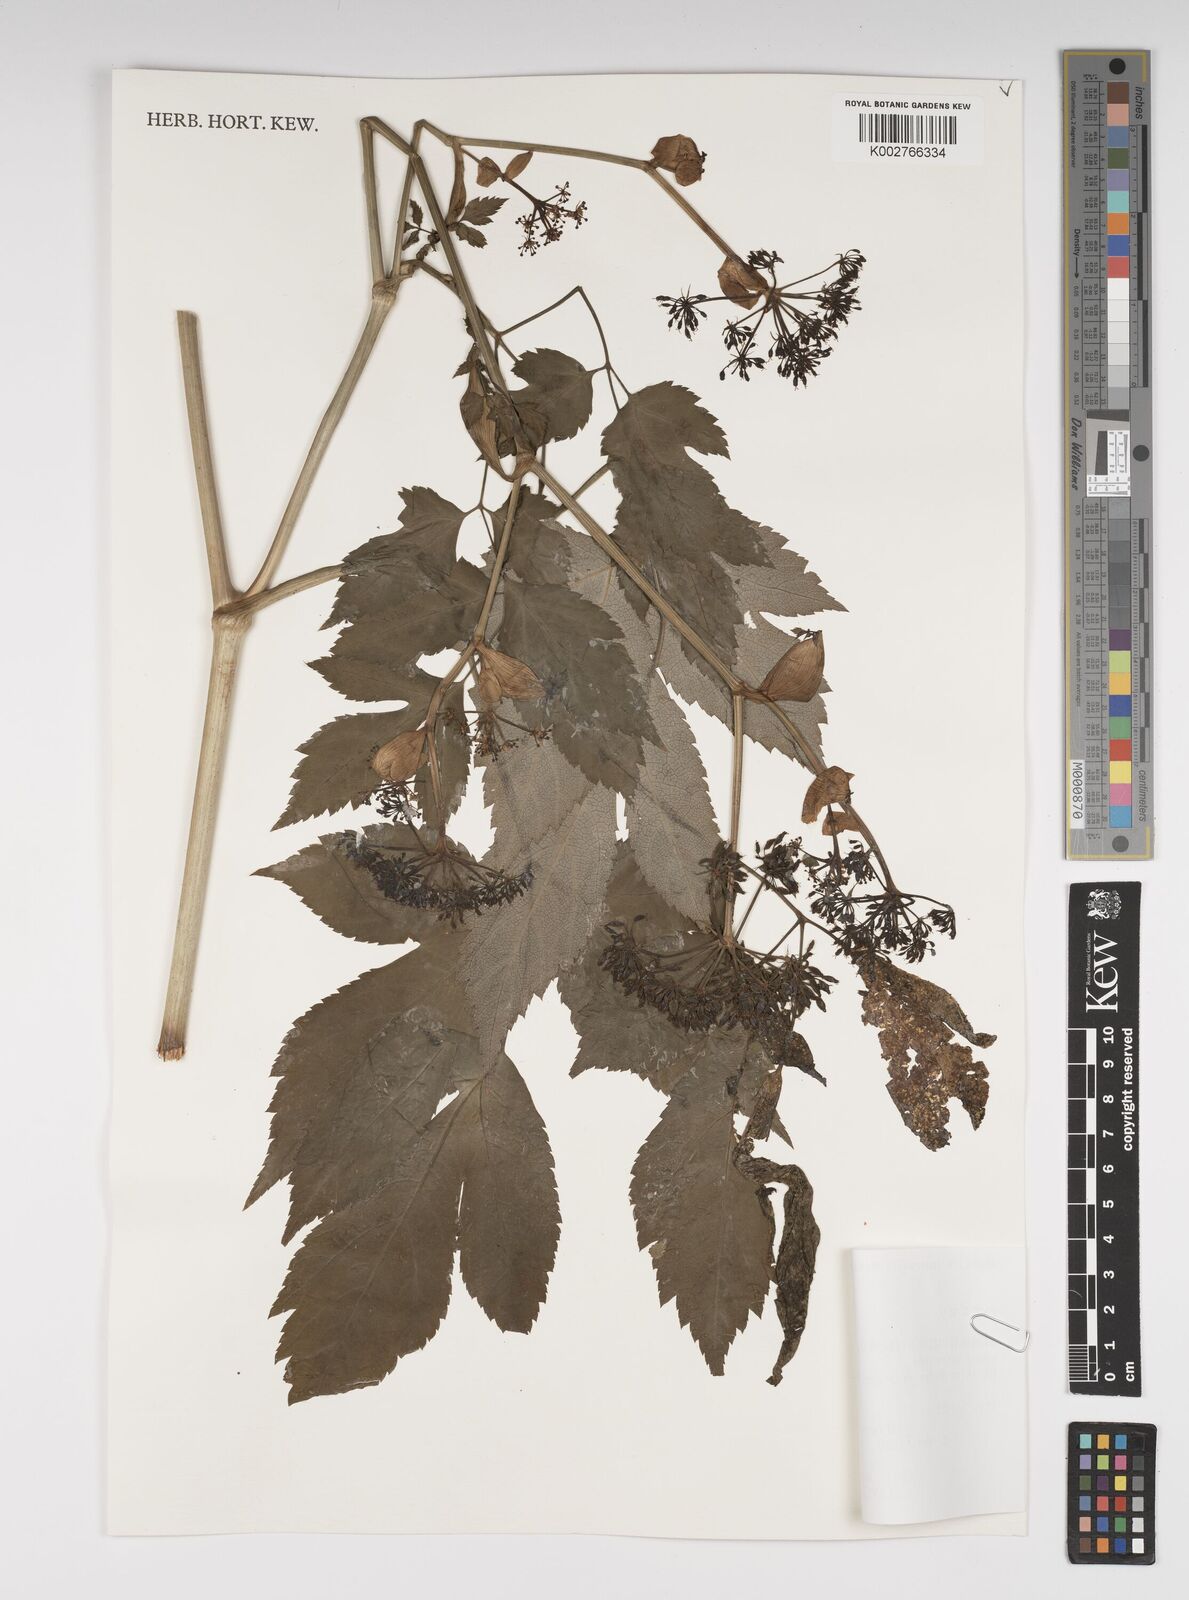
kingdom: Plantae
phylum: Tracheophyta
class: Magnoliopsida
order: Apiales
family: Apiaceae
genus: Angelica
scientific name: Angelica inaequalis
